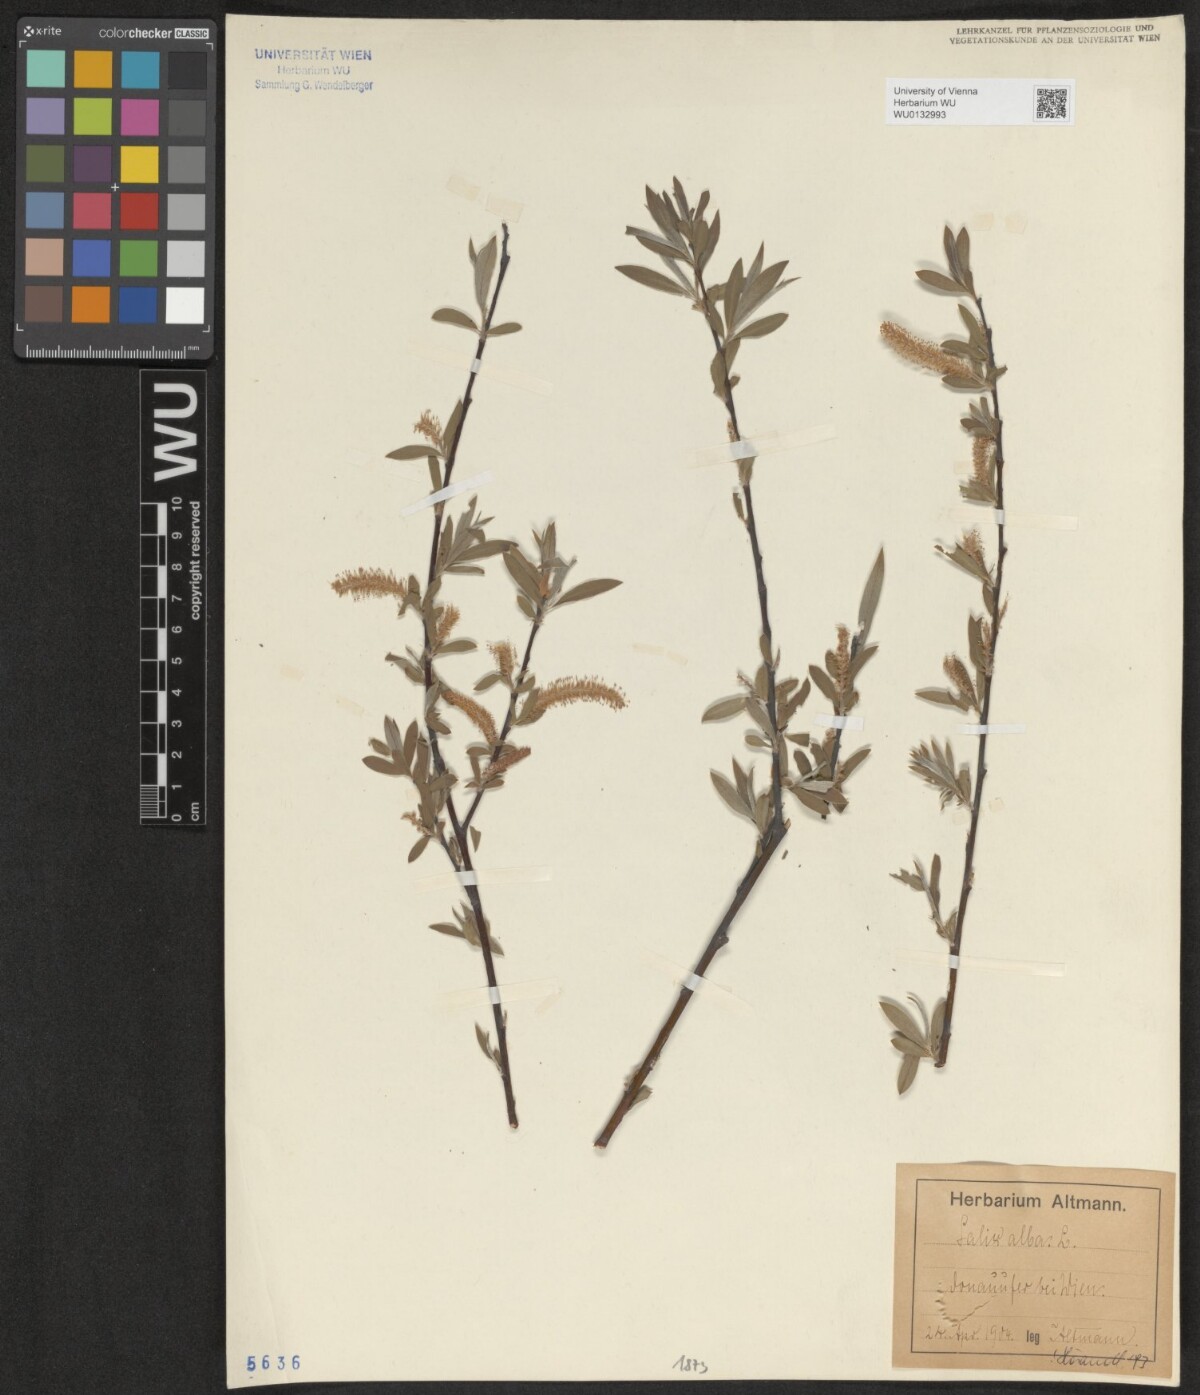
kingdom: Plantae
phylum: Tracheophyta
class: Magnoliopsida
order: Malpighiales
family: Salicaceae
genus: Salix
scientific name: Salix alba
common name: White willow
